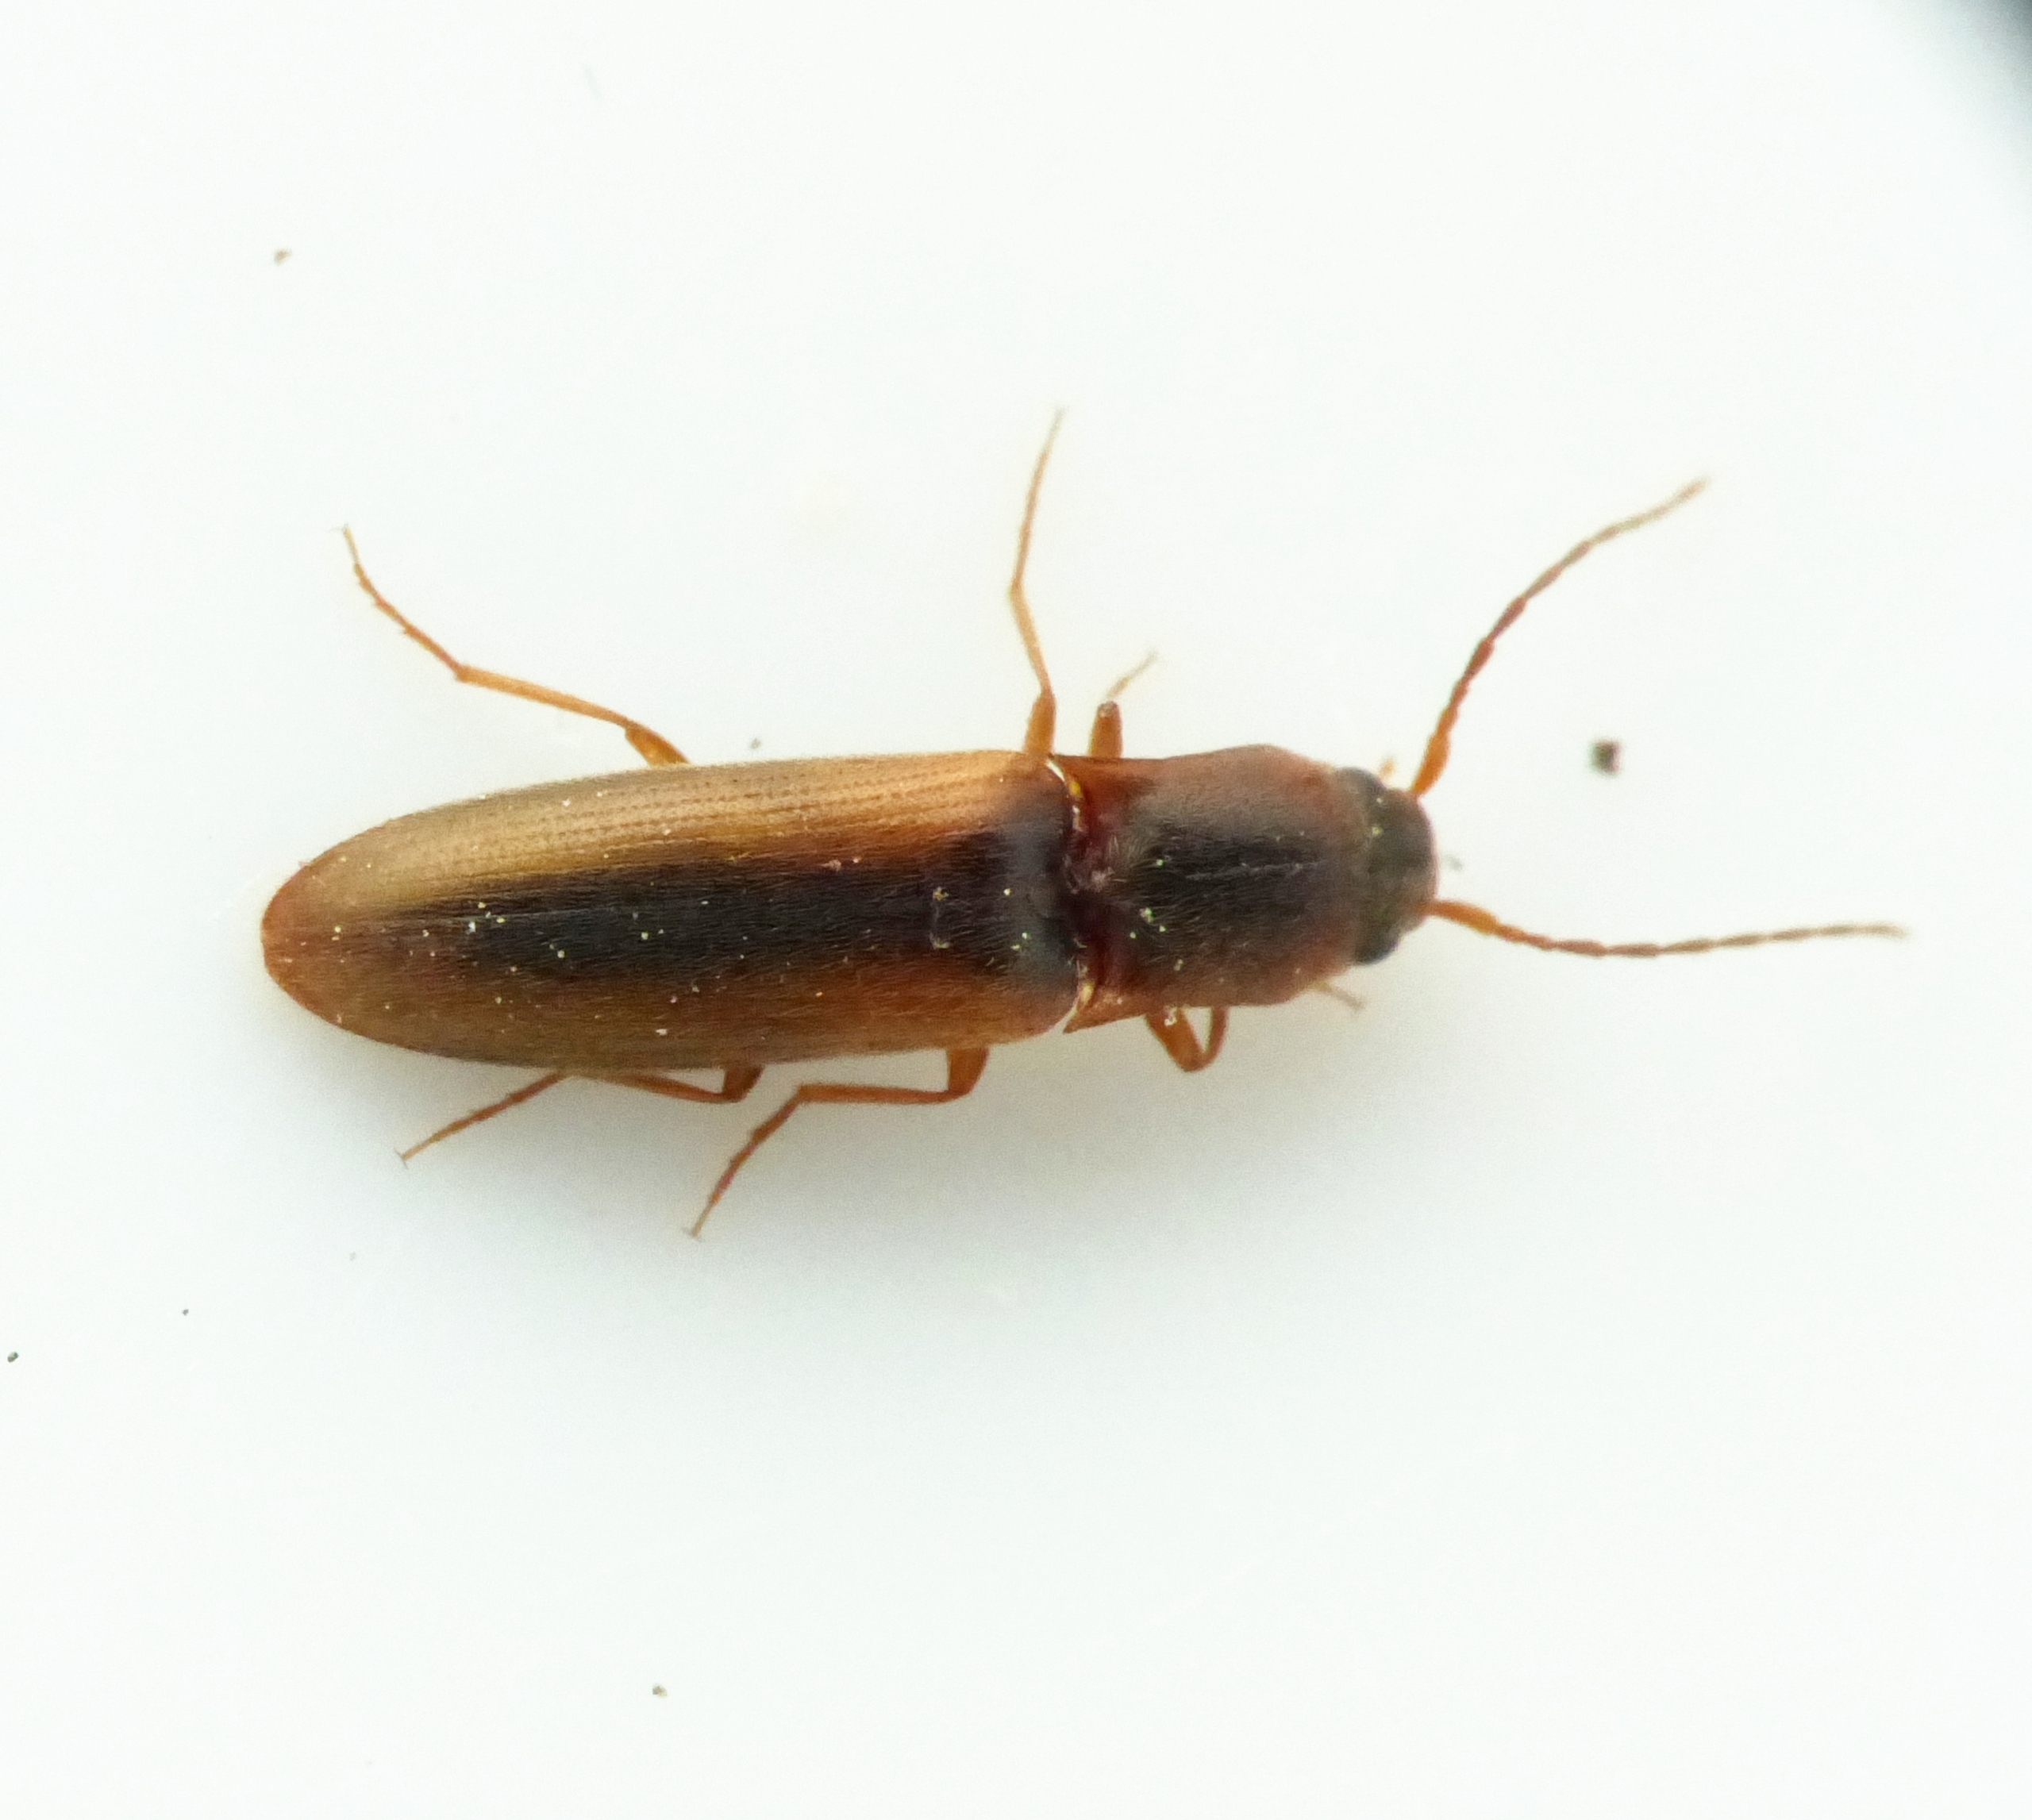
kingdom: Animalia
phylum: Arthropoda
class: Insecta
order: Coleoptera
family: Elateridae
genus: Dalopius
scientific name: Dalopius marginatus
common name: Smal kornsmælder
